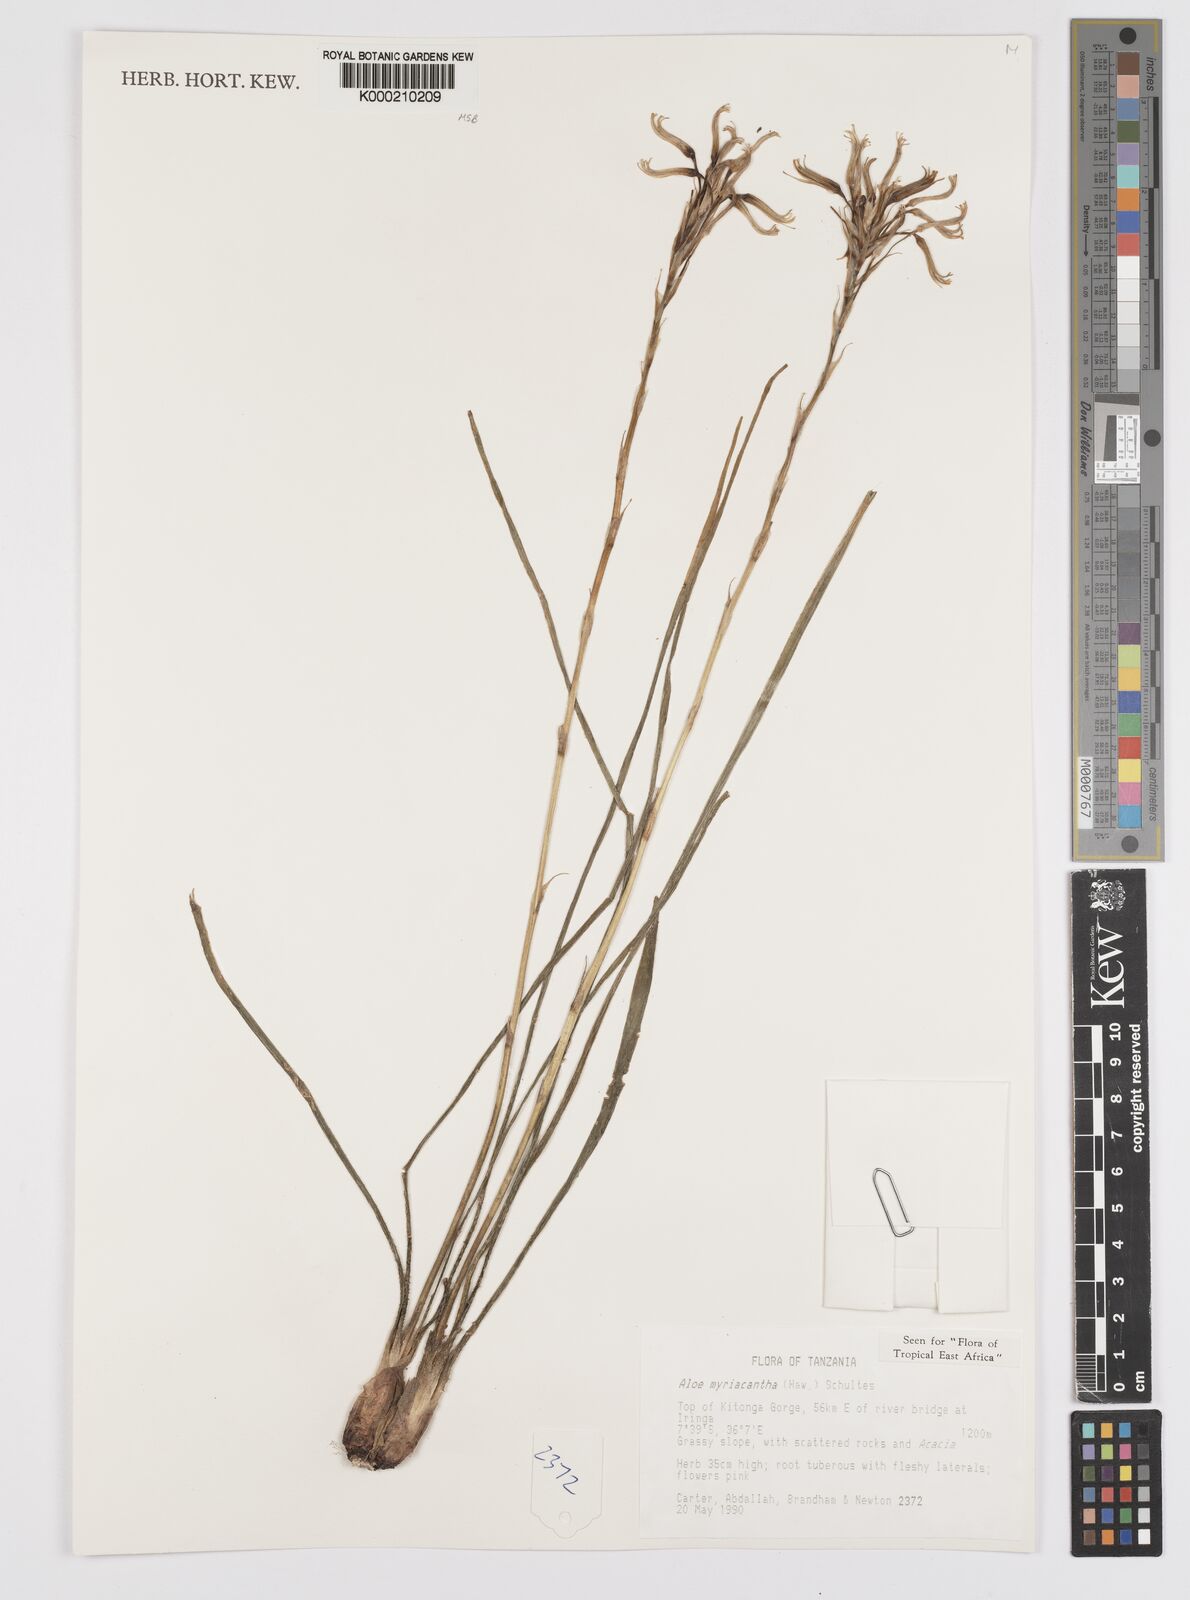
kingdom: Plantae
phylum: Tracheophyta
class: Liliopsida
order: Asparagales
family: Asphodelaceae
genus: Aloe
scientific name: Aloe
